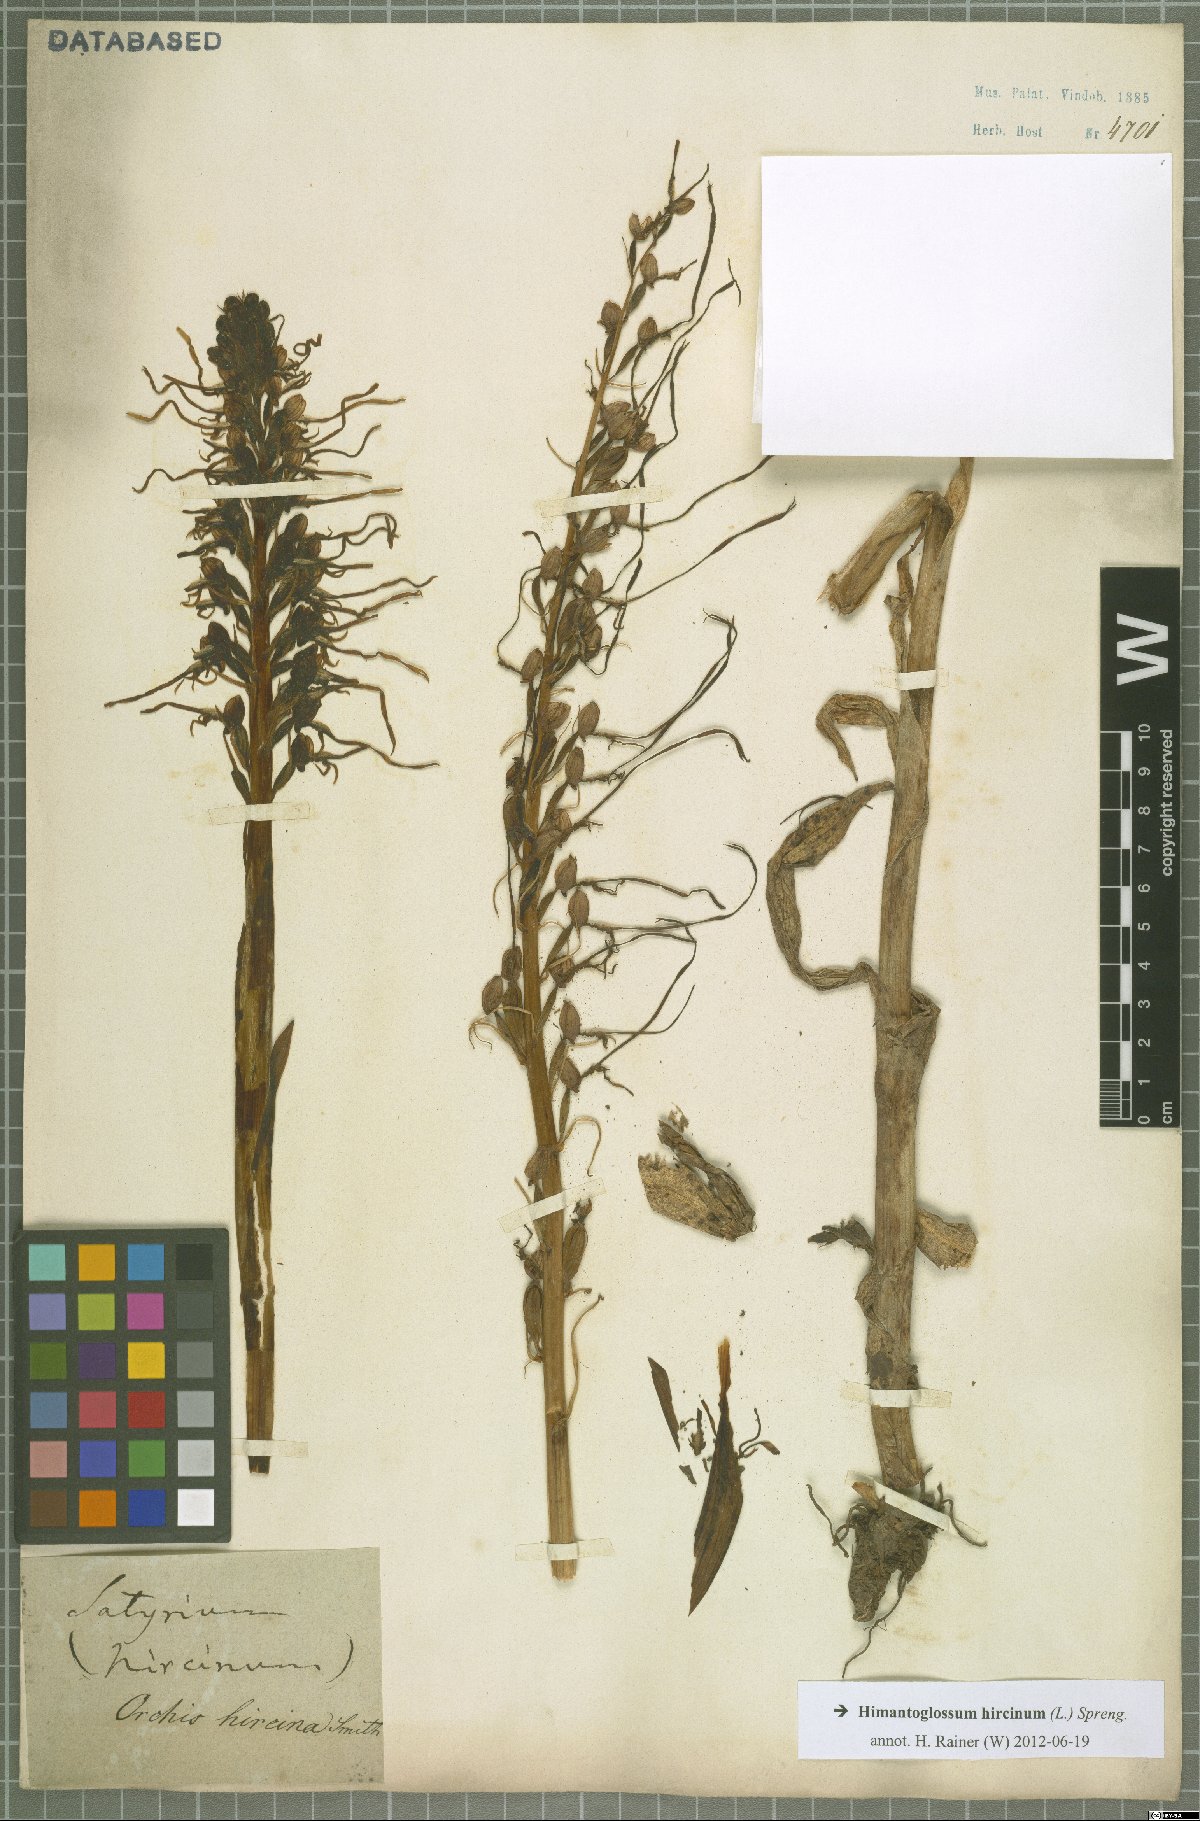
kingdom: Plantae
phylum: Tracheophyta
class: Liliopsida
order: Asparagales
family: Orchidaceae
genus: Himantoglossum
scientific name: Himantoglossum hircinum
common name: Lizard orchid
